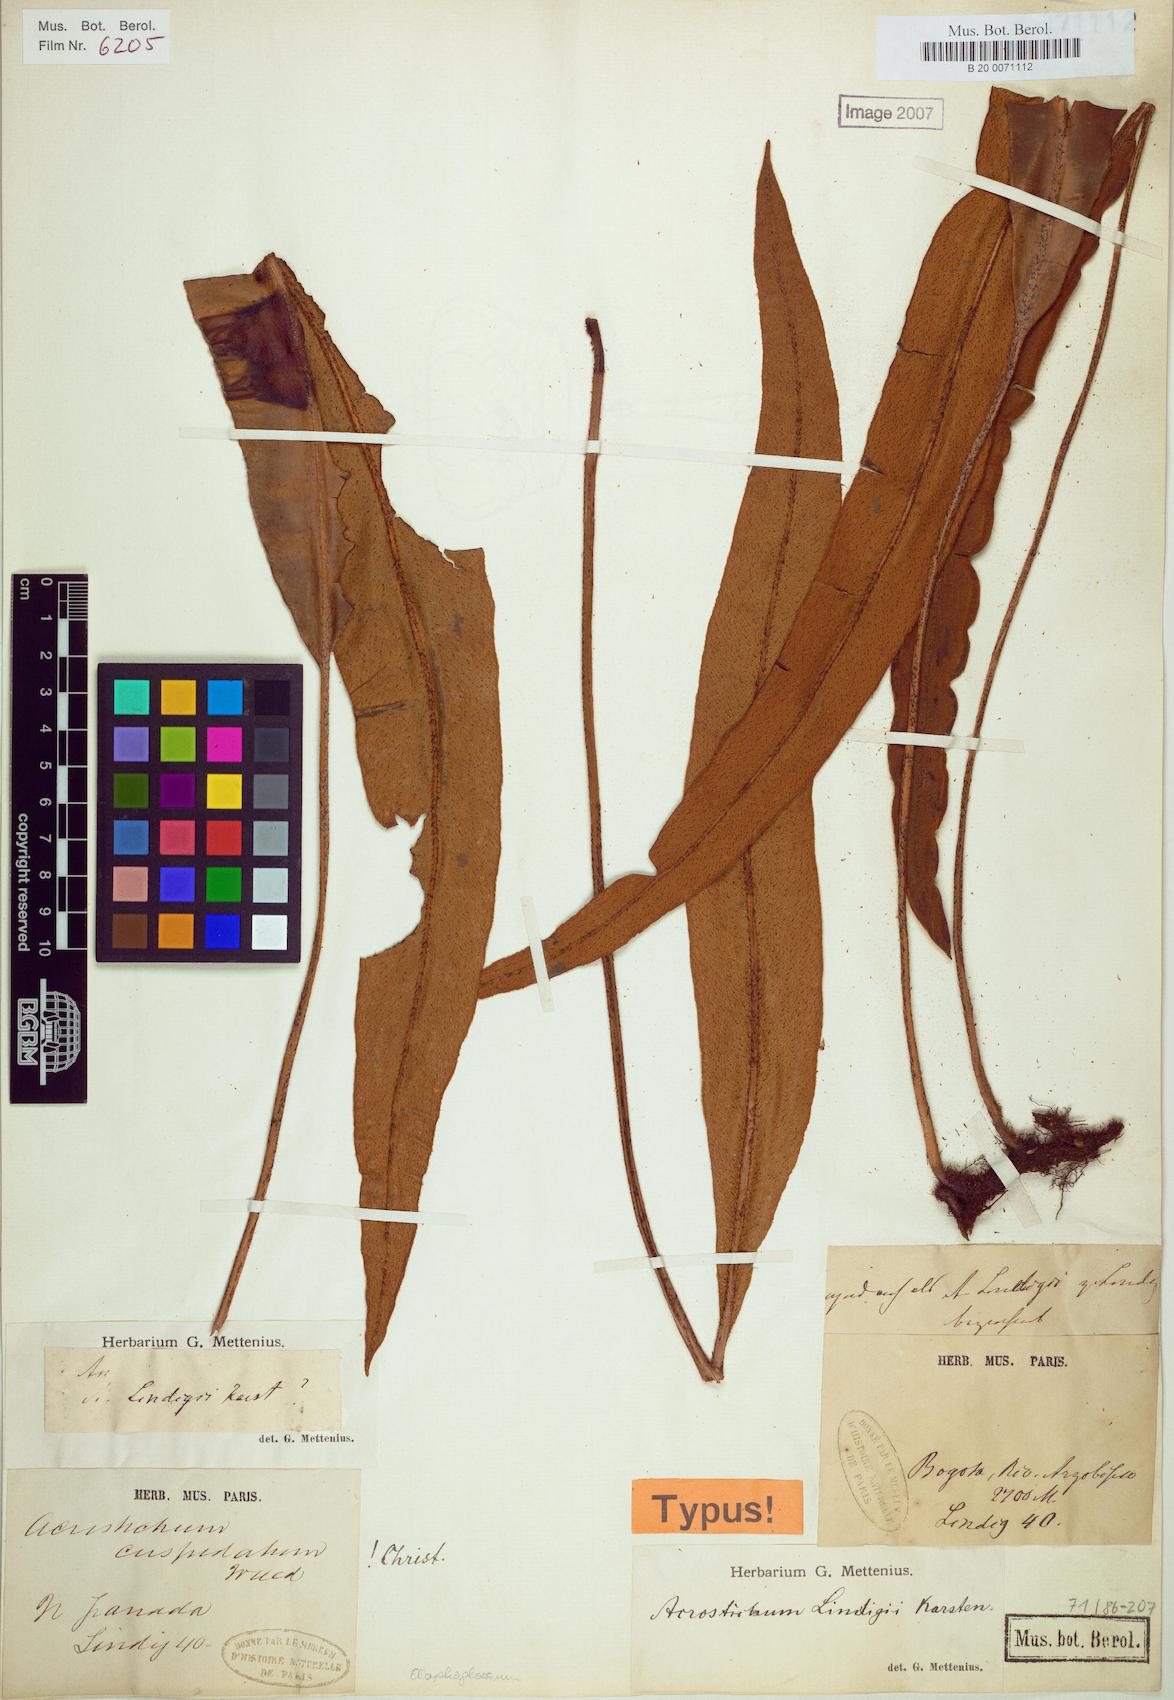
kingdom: Plantae
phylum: Tracheophyta
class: Polypodiopsida
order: Polypodiales
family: Dryopteridaceae
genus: Elaphoglossum
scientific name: Elaphoglossum lindigii
